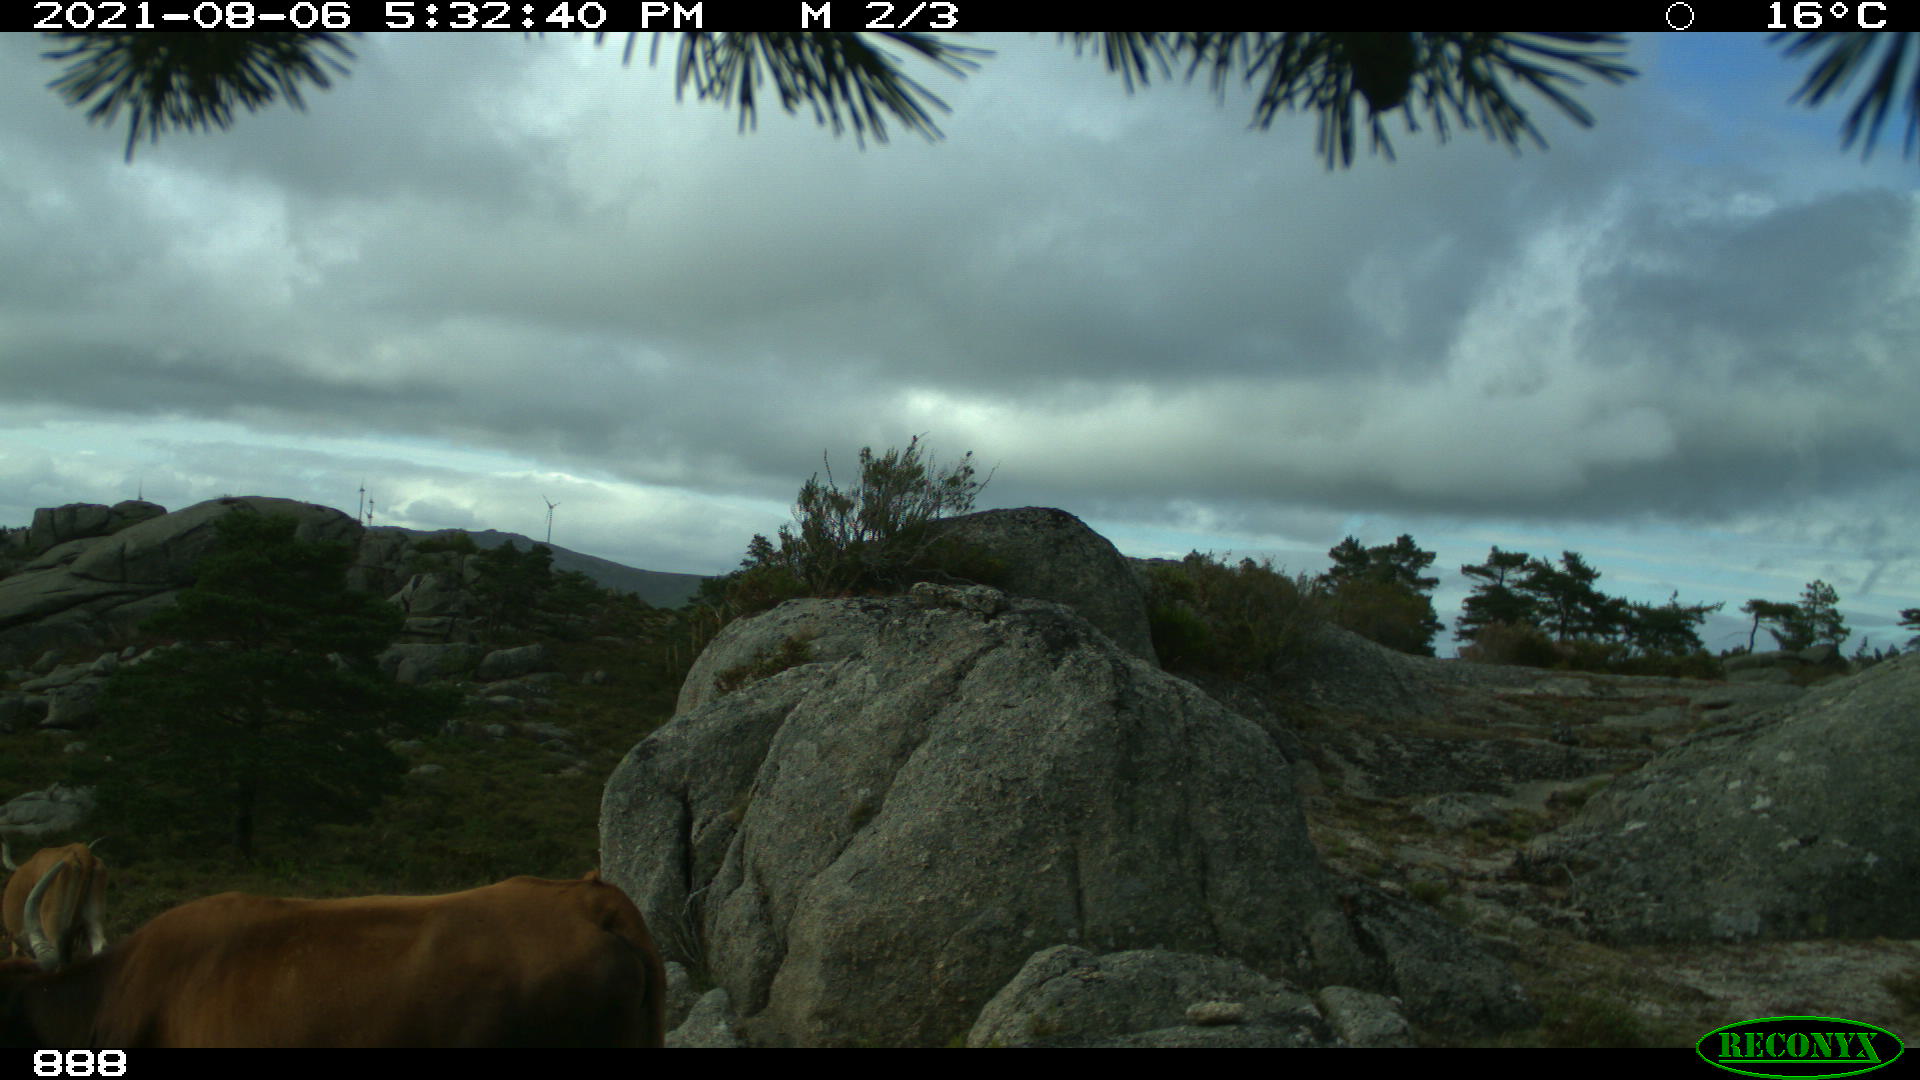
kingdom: Animalia
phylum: Chordata
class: Mammalia
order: Artiodactyla
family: Bovidae
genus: Bos
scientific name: Bos taurus
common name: Domesticated cattle
